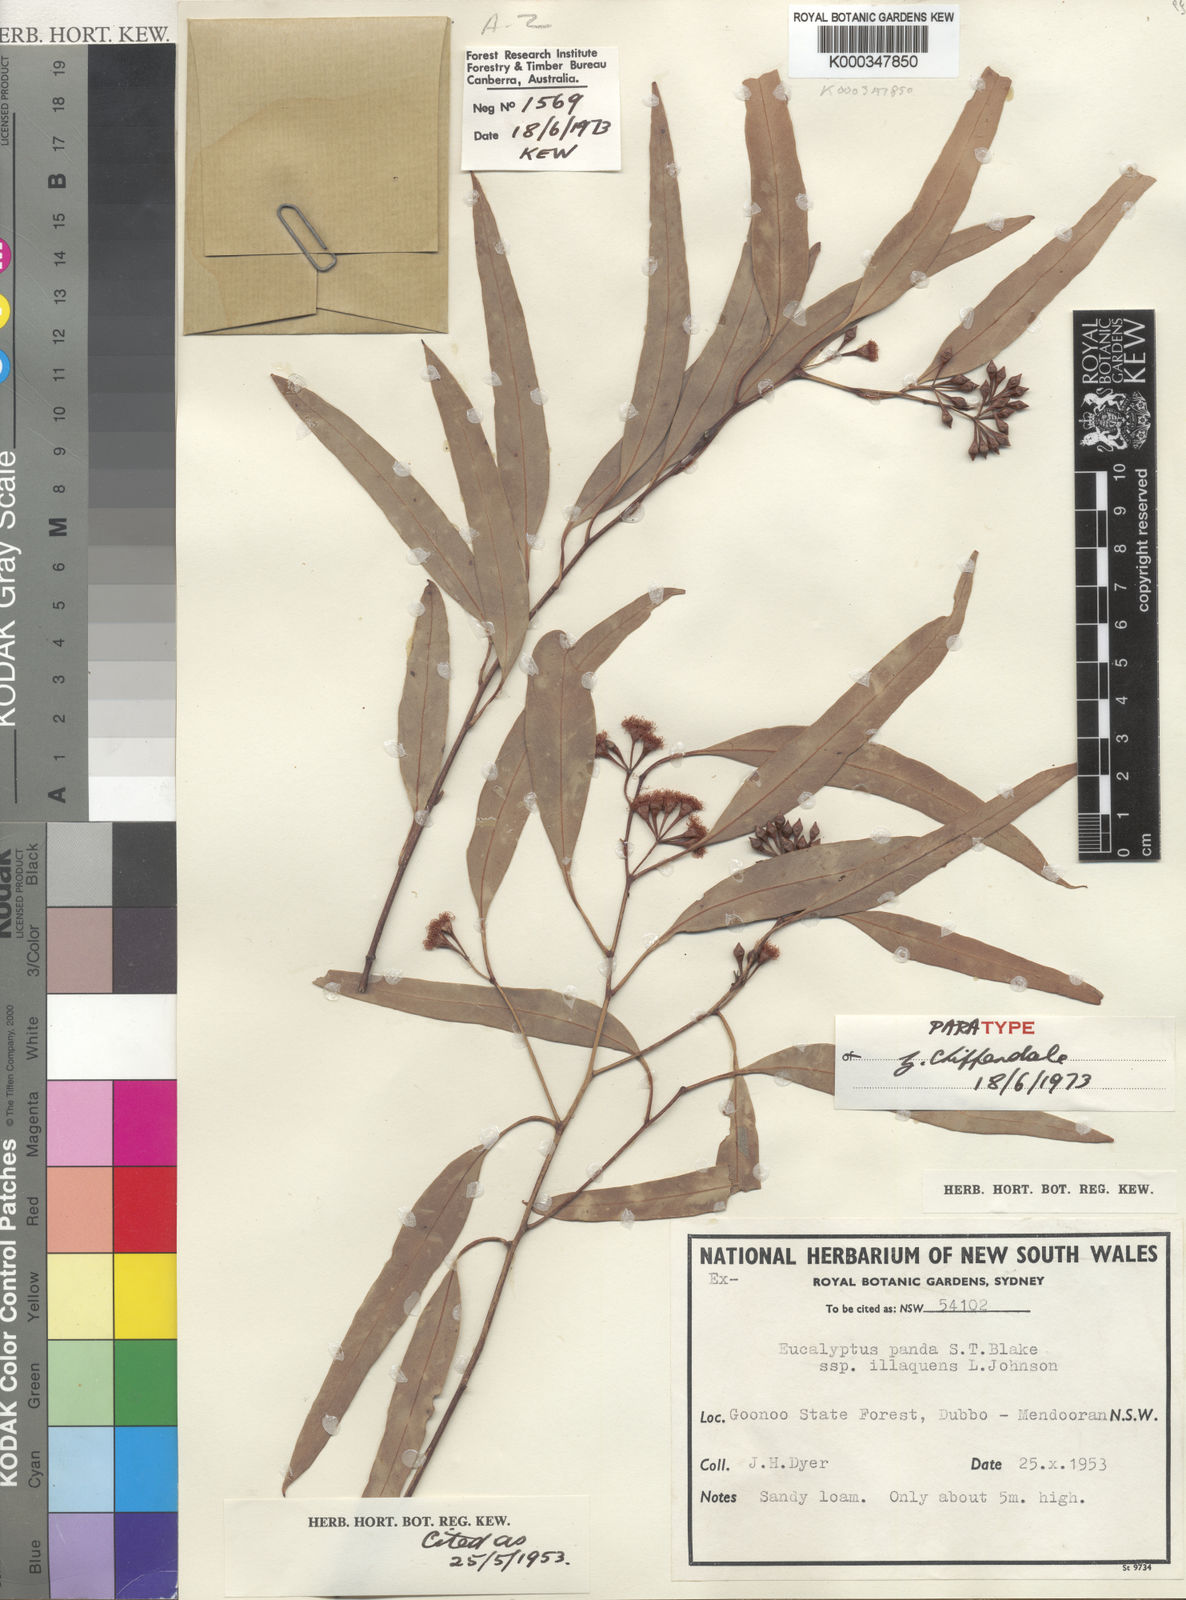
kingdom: Plantae
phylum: Tracheophyta
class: Magnoliopsida
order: Myrtales
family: Myrtaceae
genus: Eucalyptus
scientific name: Eucalyptus beyeri
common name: Beyer's ironbark
